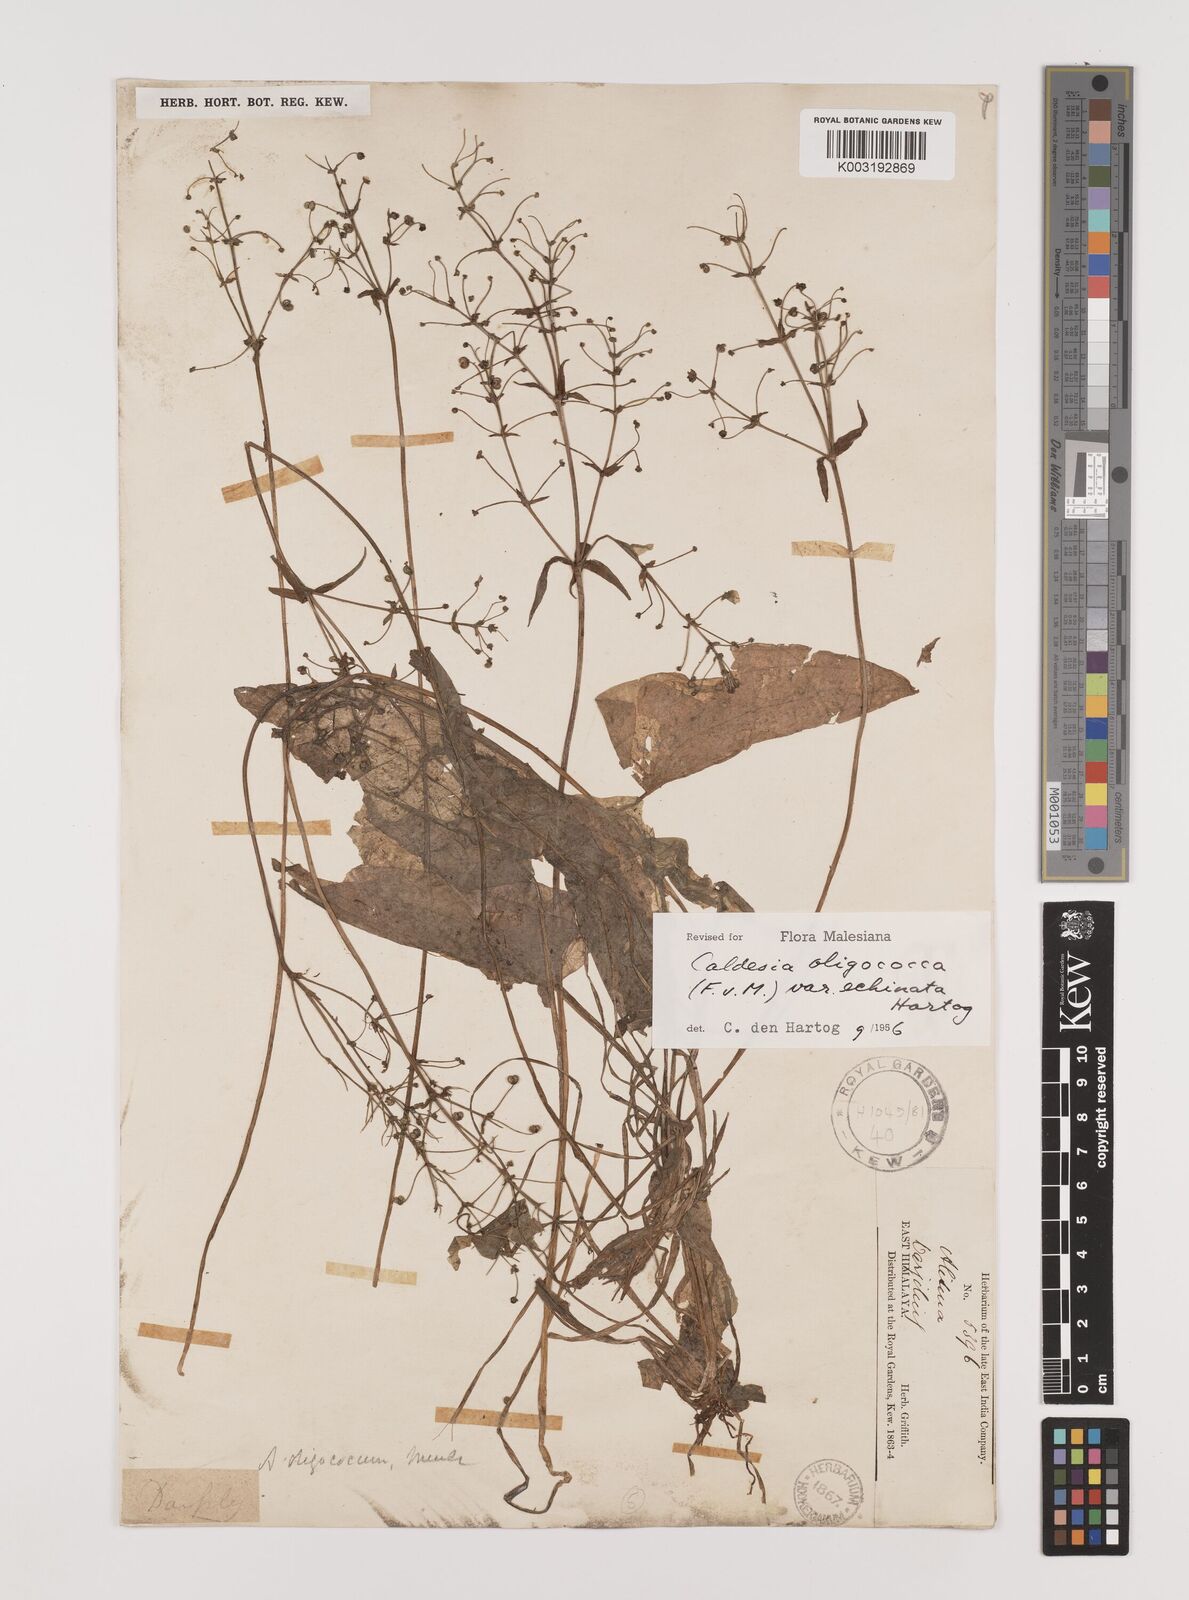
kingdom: Plantae
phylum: Tracheophyta
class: Liliopsida
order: Alismatales
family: Alismataceae
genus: Albidella
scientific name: Albidella oligococca
